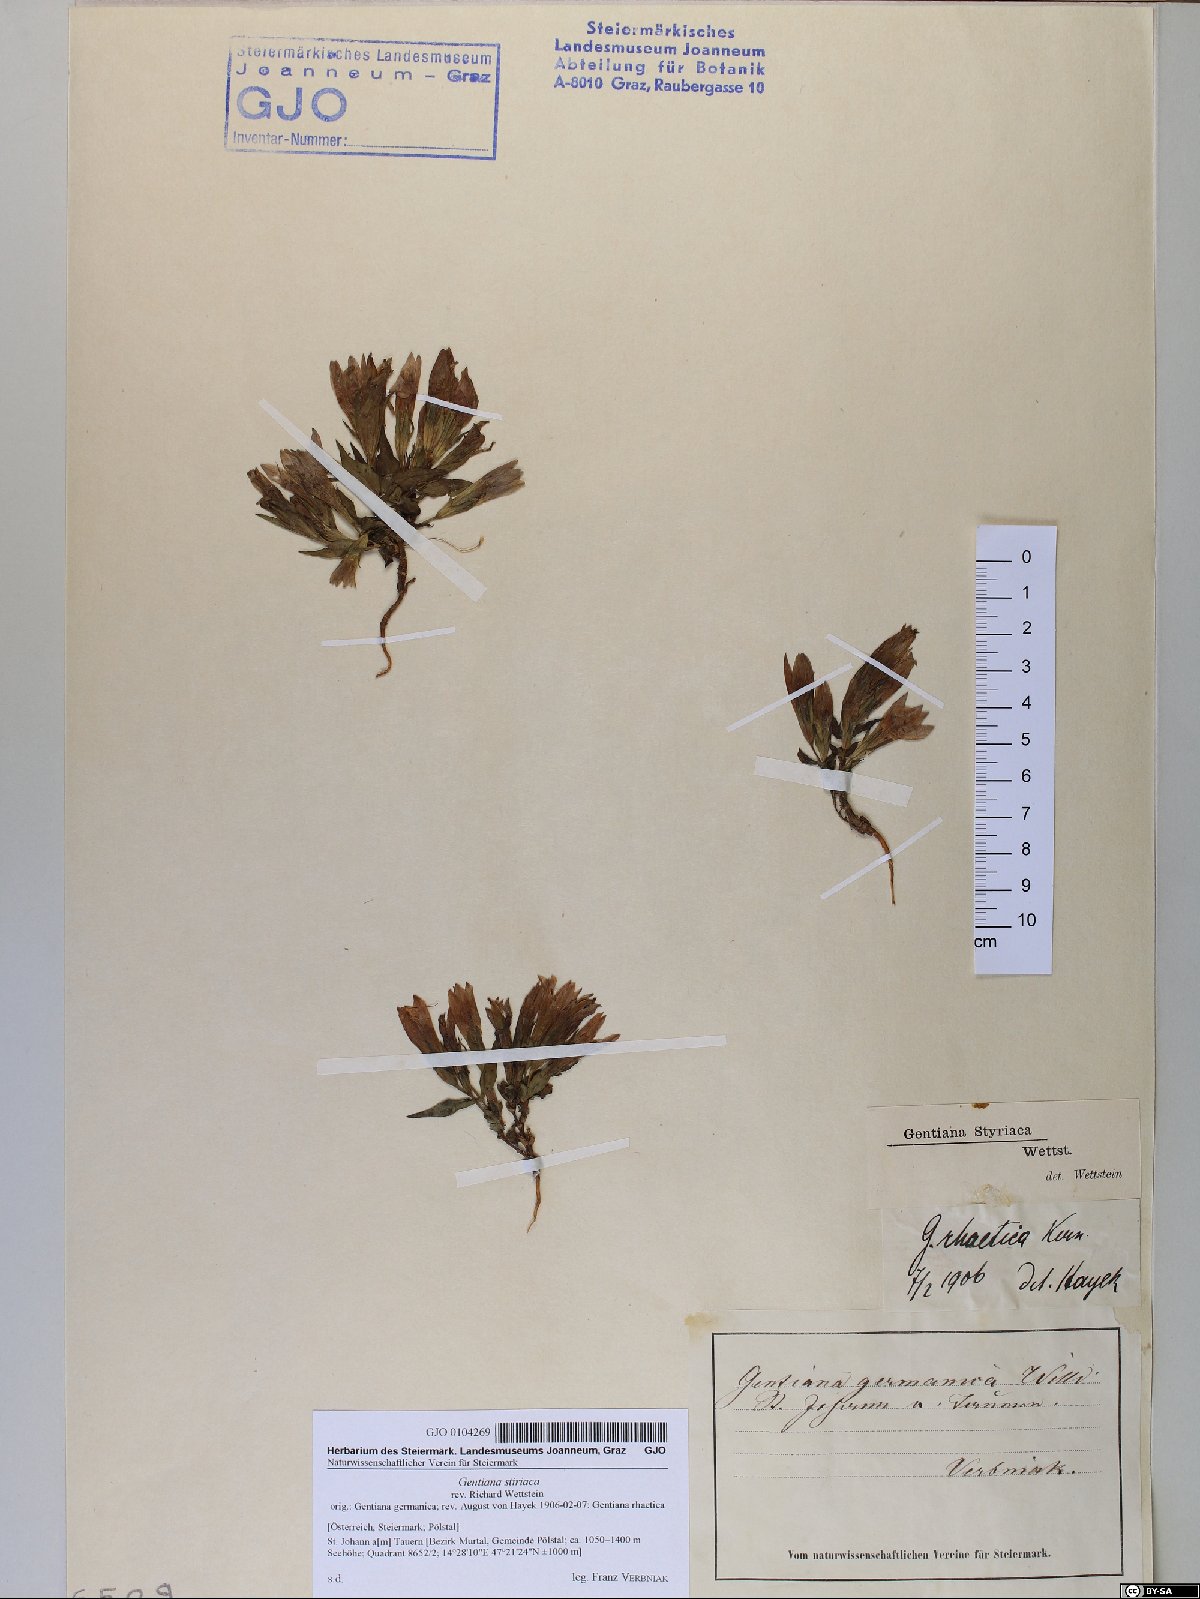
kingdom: Plantae
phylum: Tracheophyta
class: Magnoliopsida
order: Gentianales
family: Gentianaceae
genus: Gentianella
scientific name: Gentianella rhaetica
